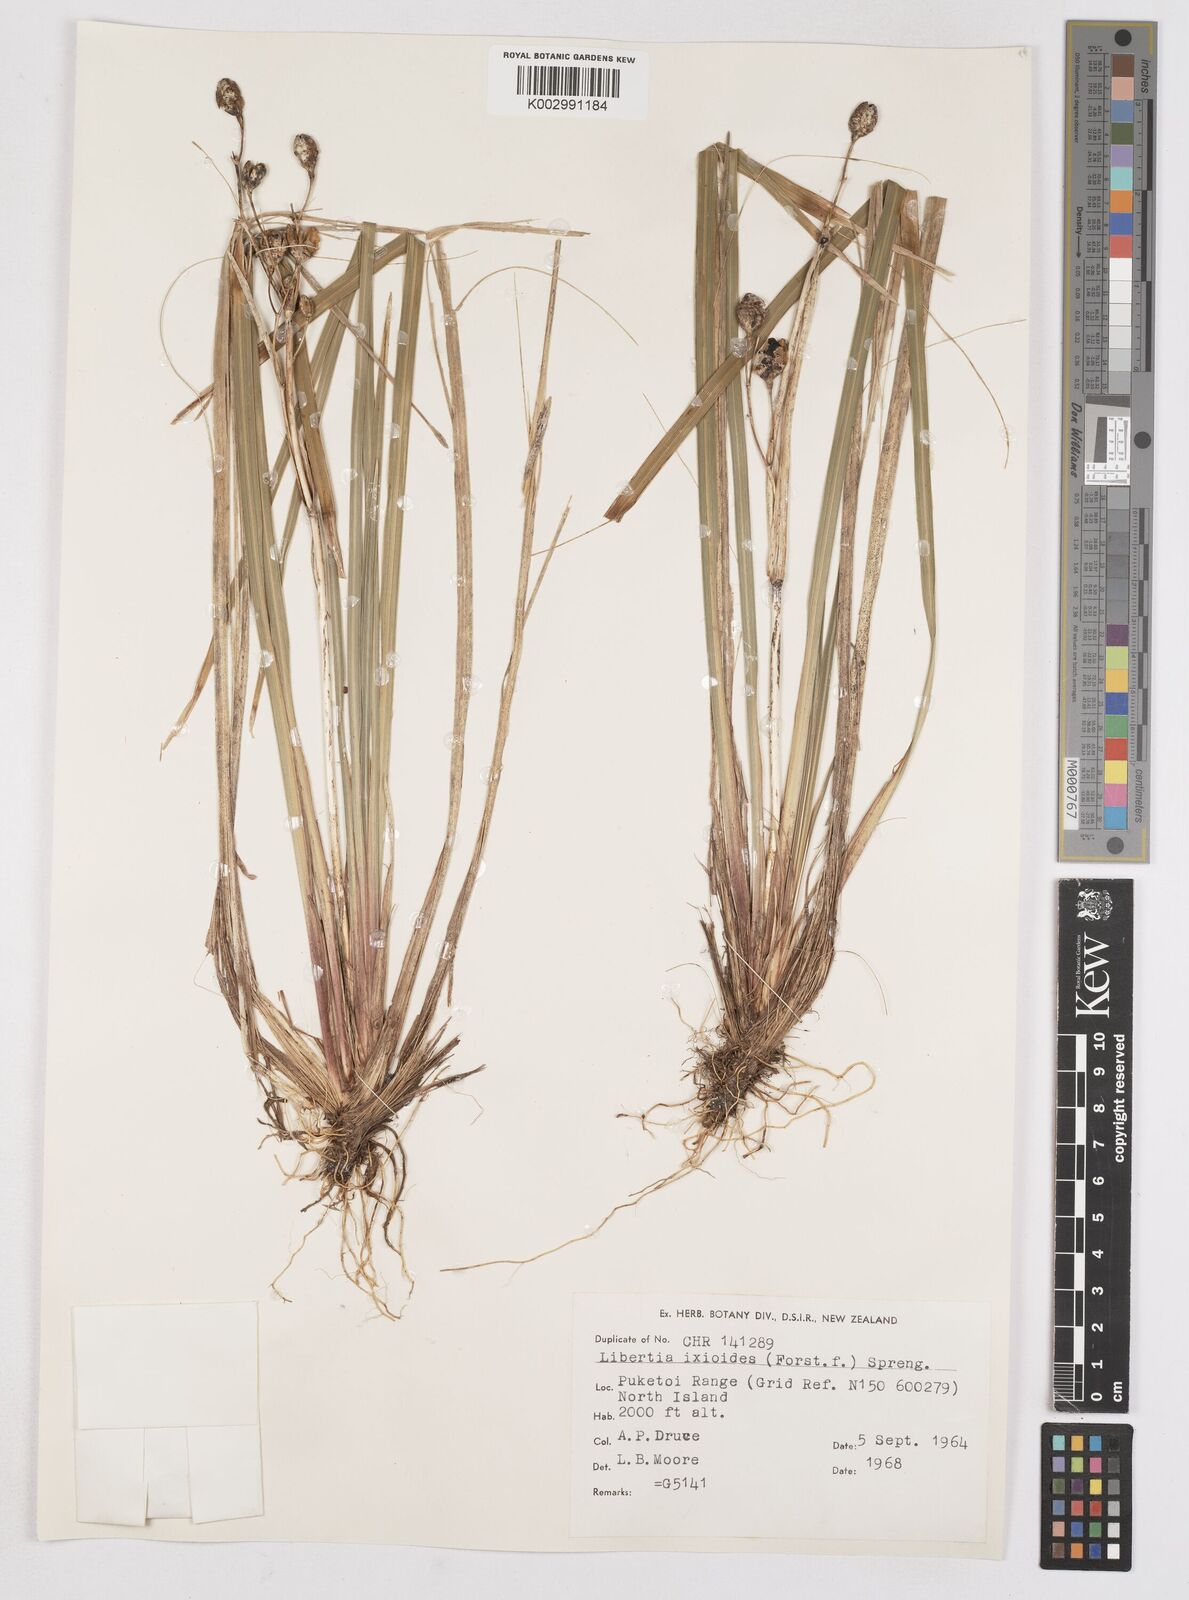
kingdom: Plantae
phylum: Tracheophyta
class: Liliopsida
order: Asparagales
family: Iridaceae
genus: Libertia
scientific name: Libertia ixioides
